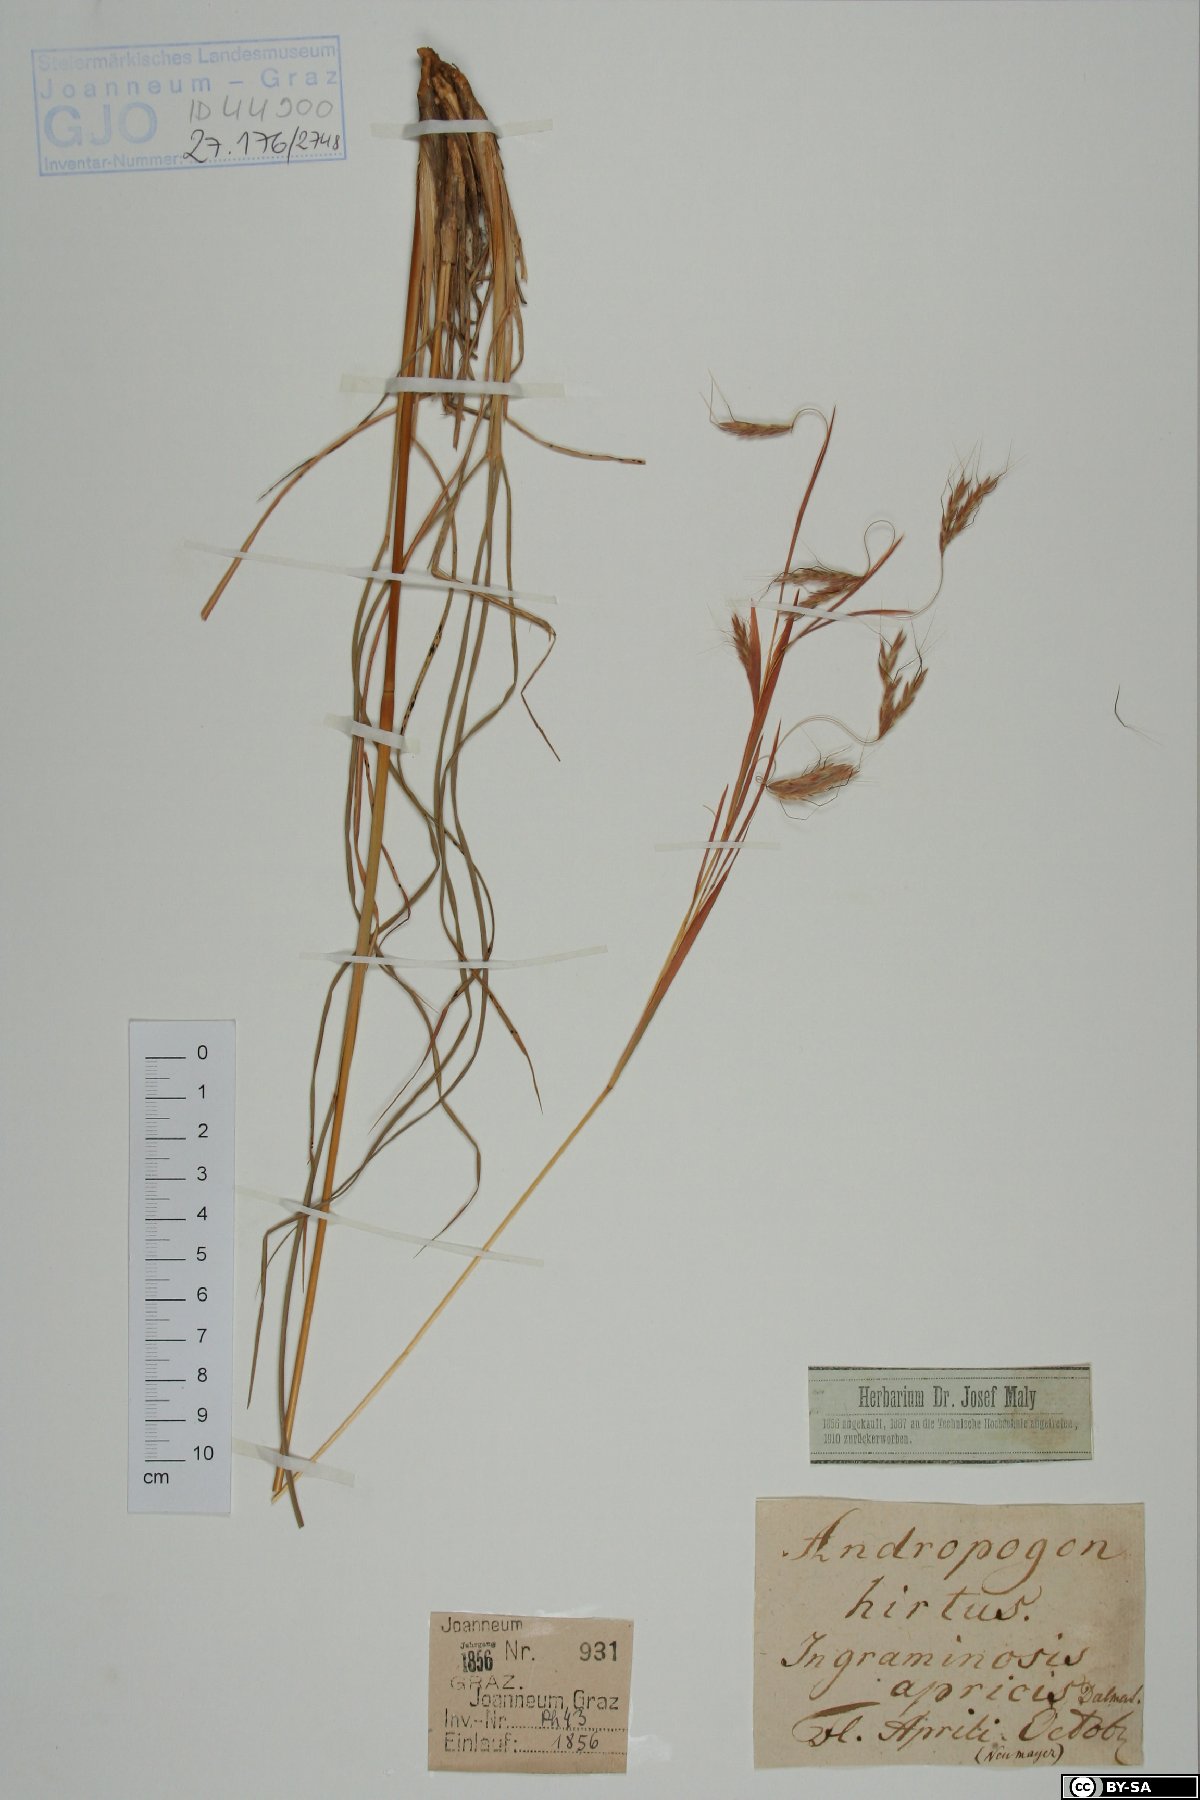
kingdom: Plantae
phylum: Tracheophyta
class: Liliopsida
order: Poales
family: Poaceae
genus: Hyparrhenia
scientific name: Hyparrhenia hirta
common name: Thatching grass
